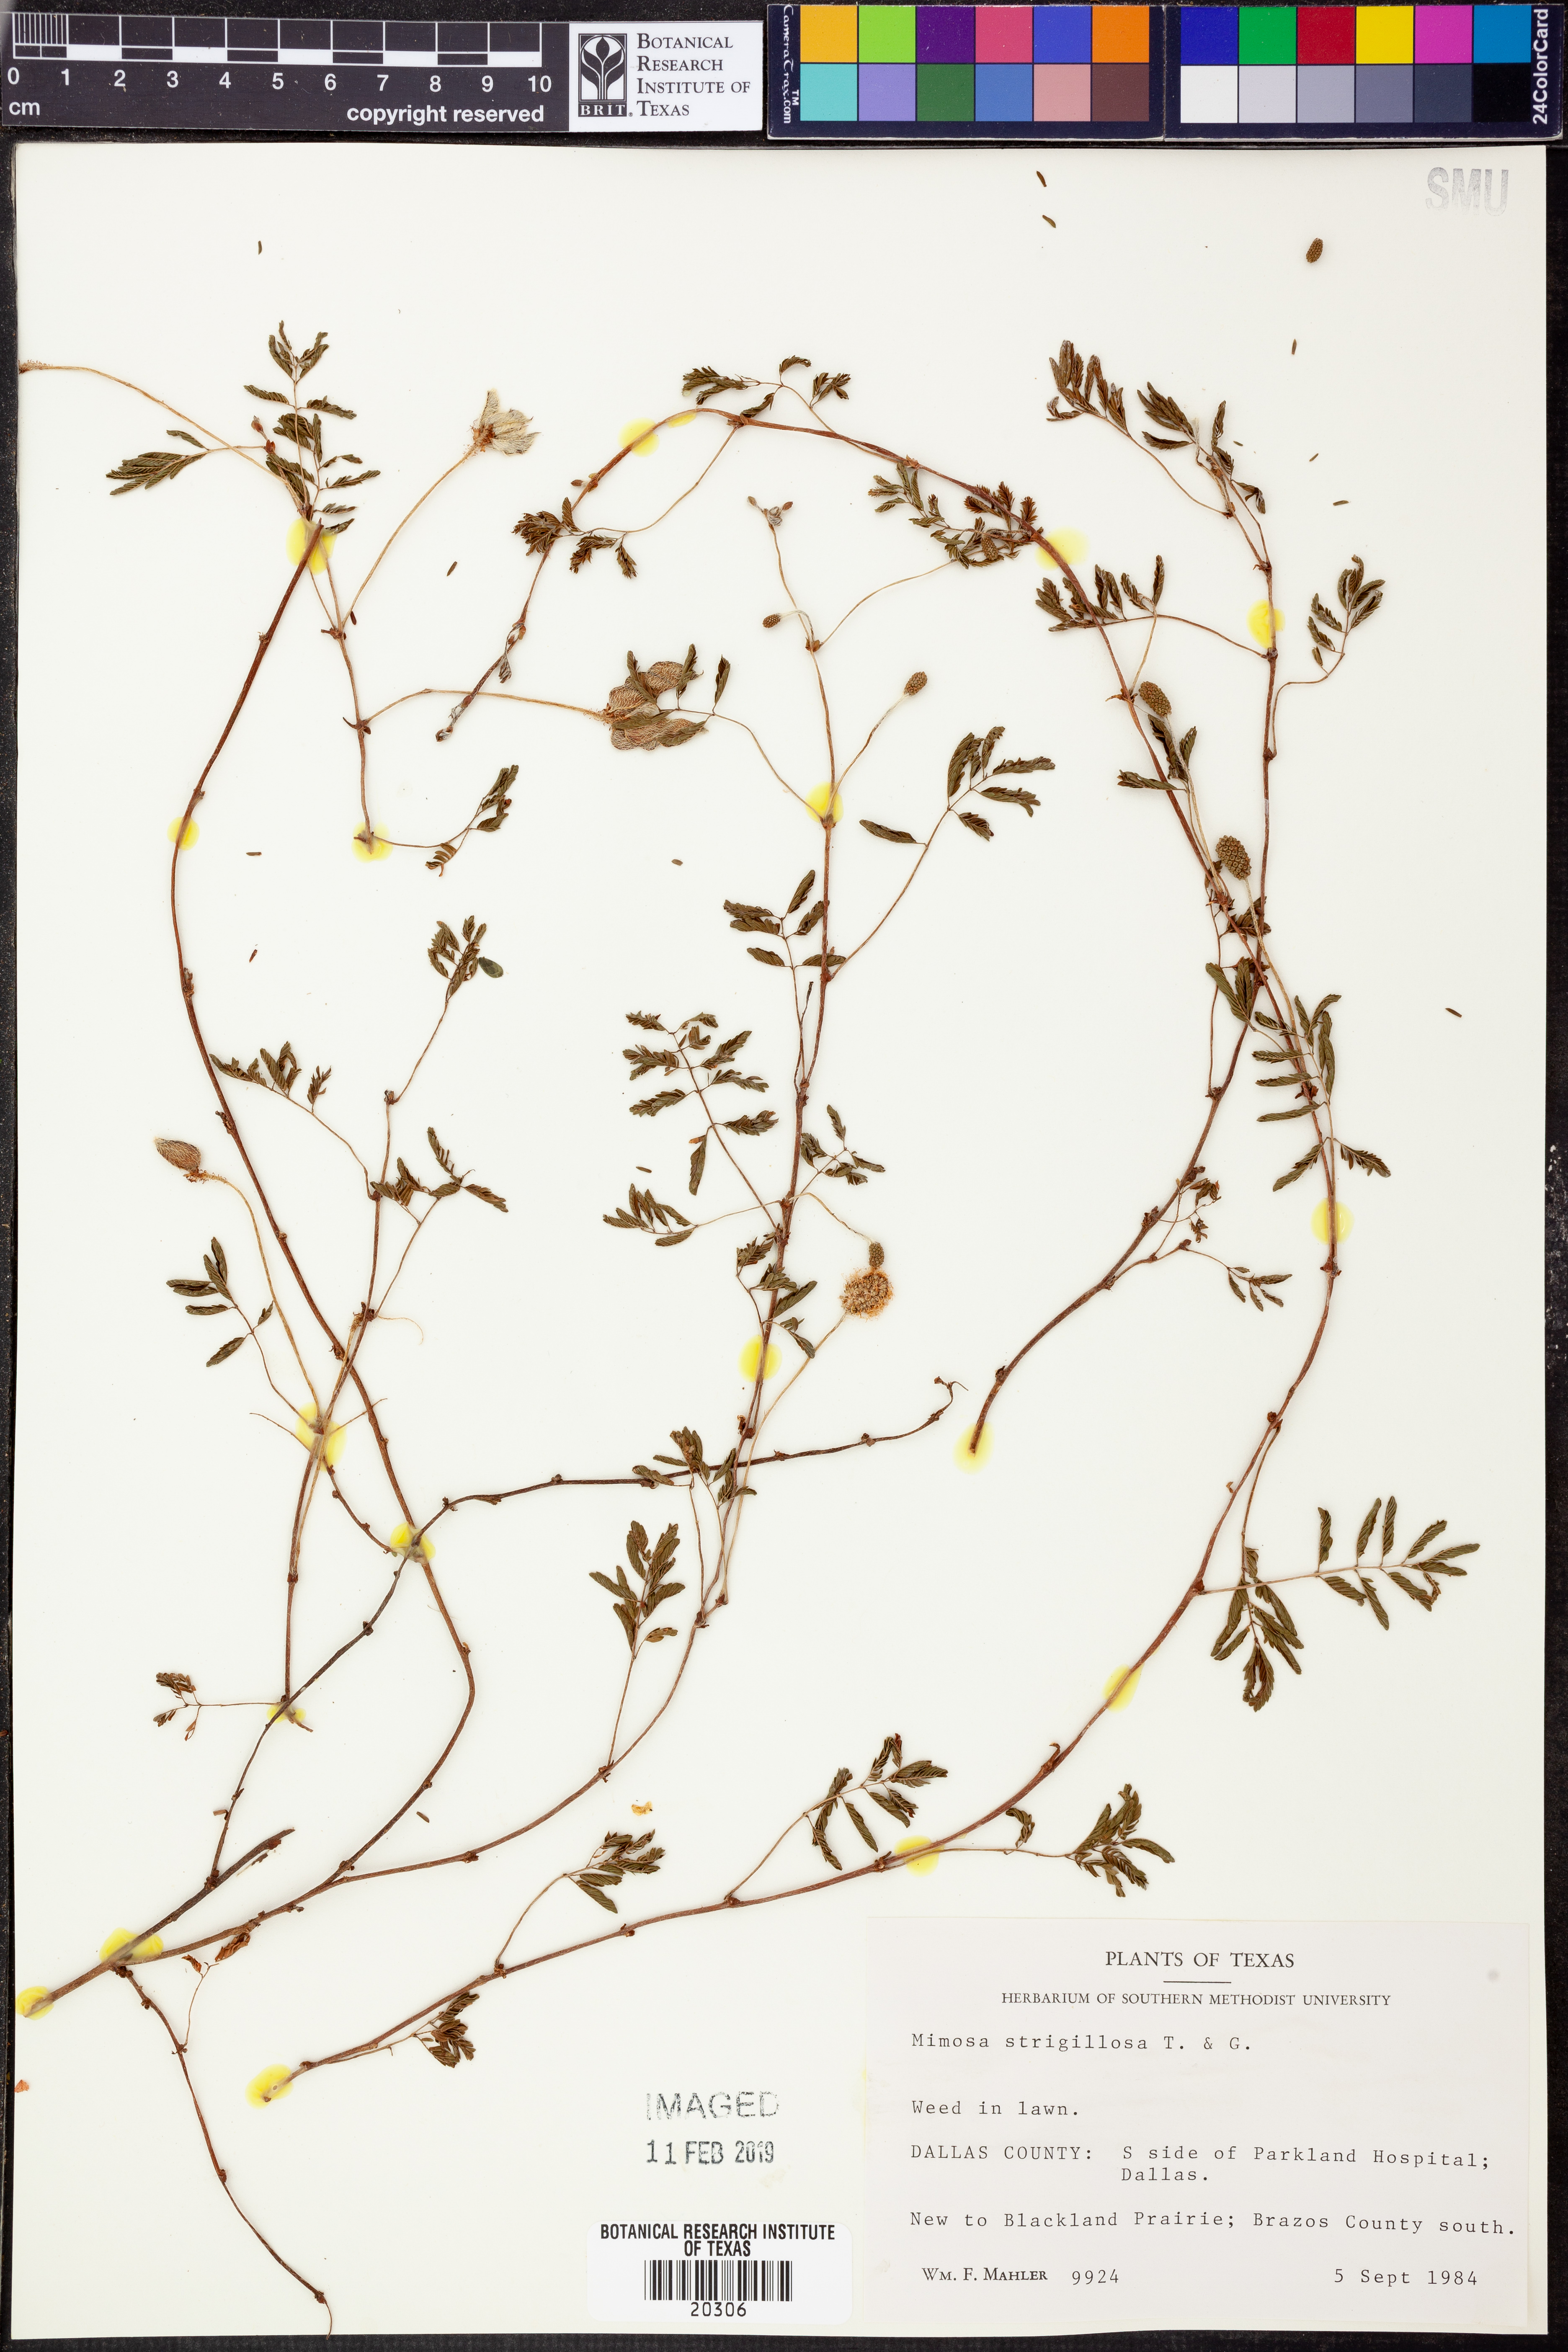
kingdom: Plantae
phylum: Tracheophyta
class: Magnoliopsida
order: Fabales
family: Fabaceae
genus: Mimosa
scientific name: Mimosa strigillosa
